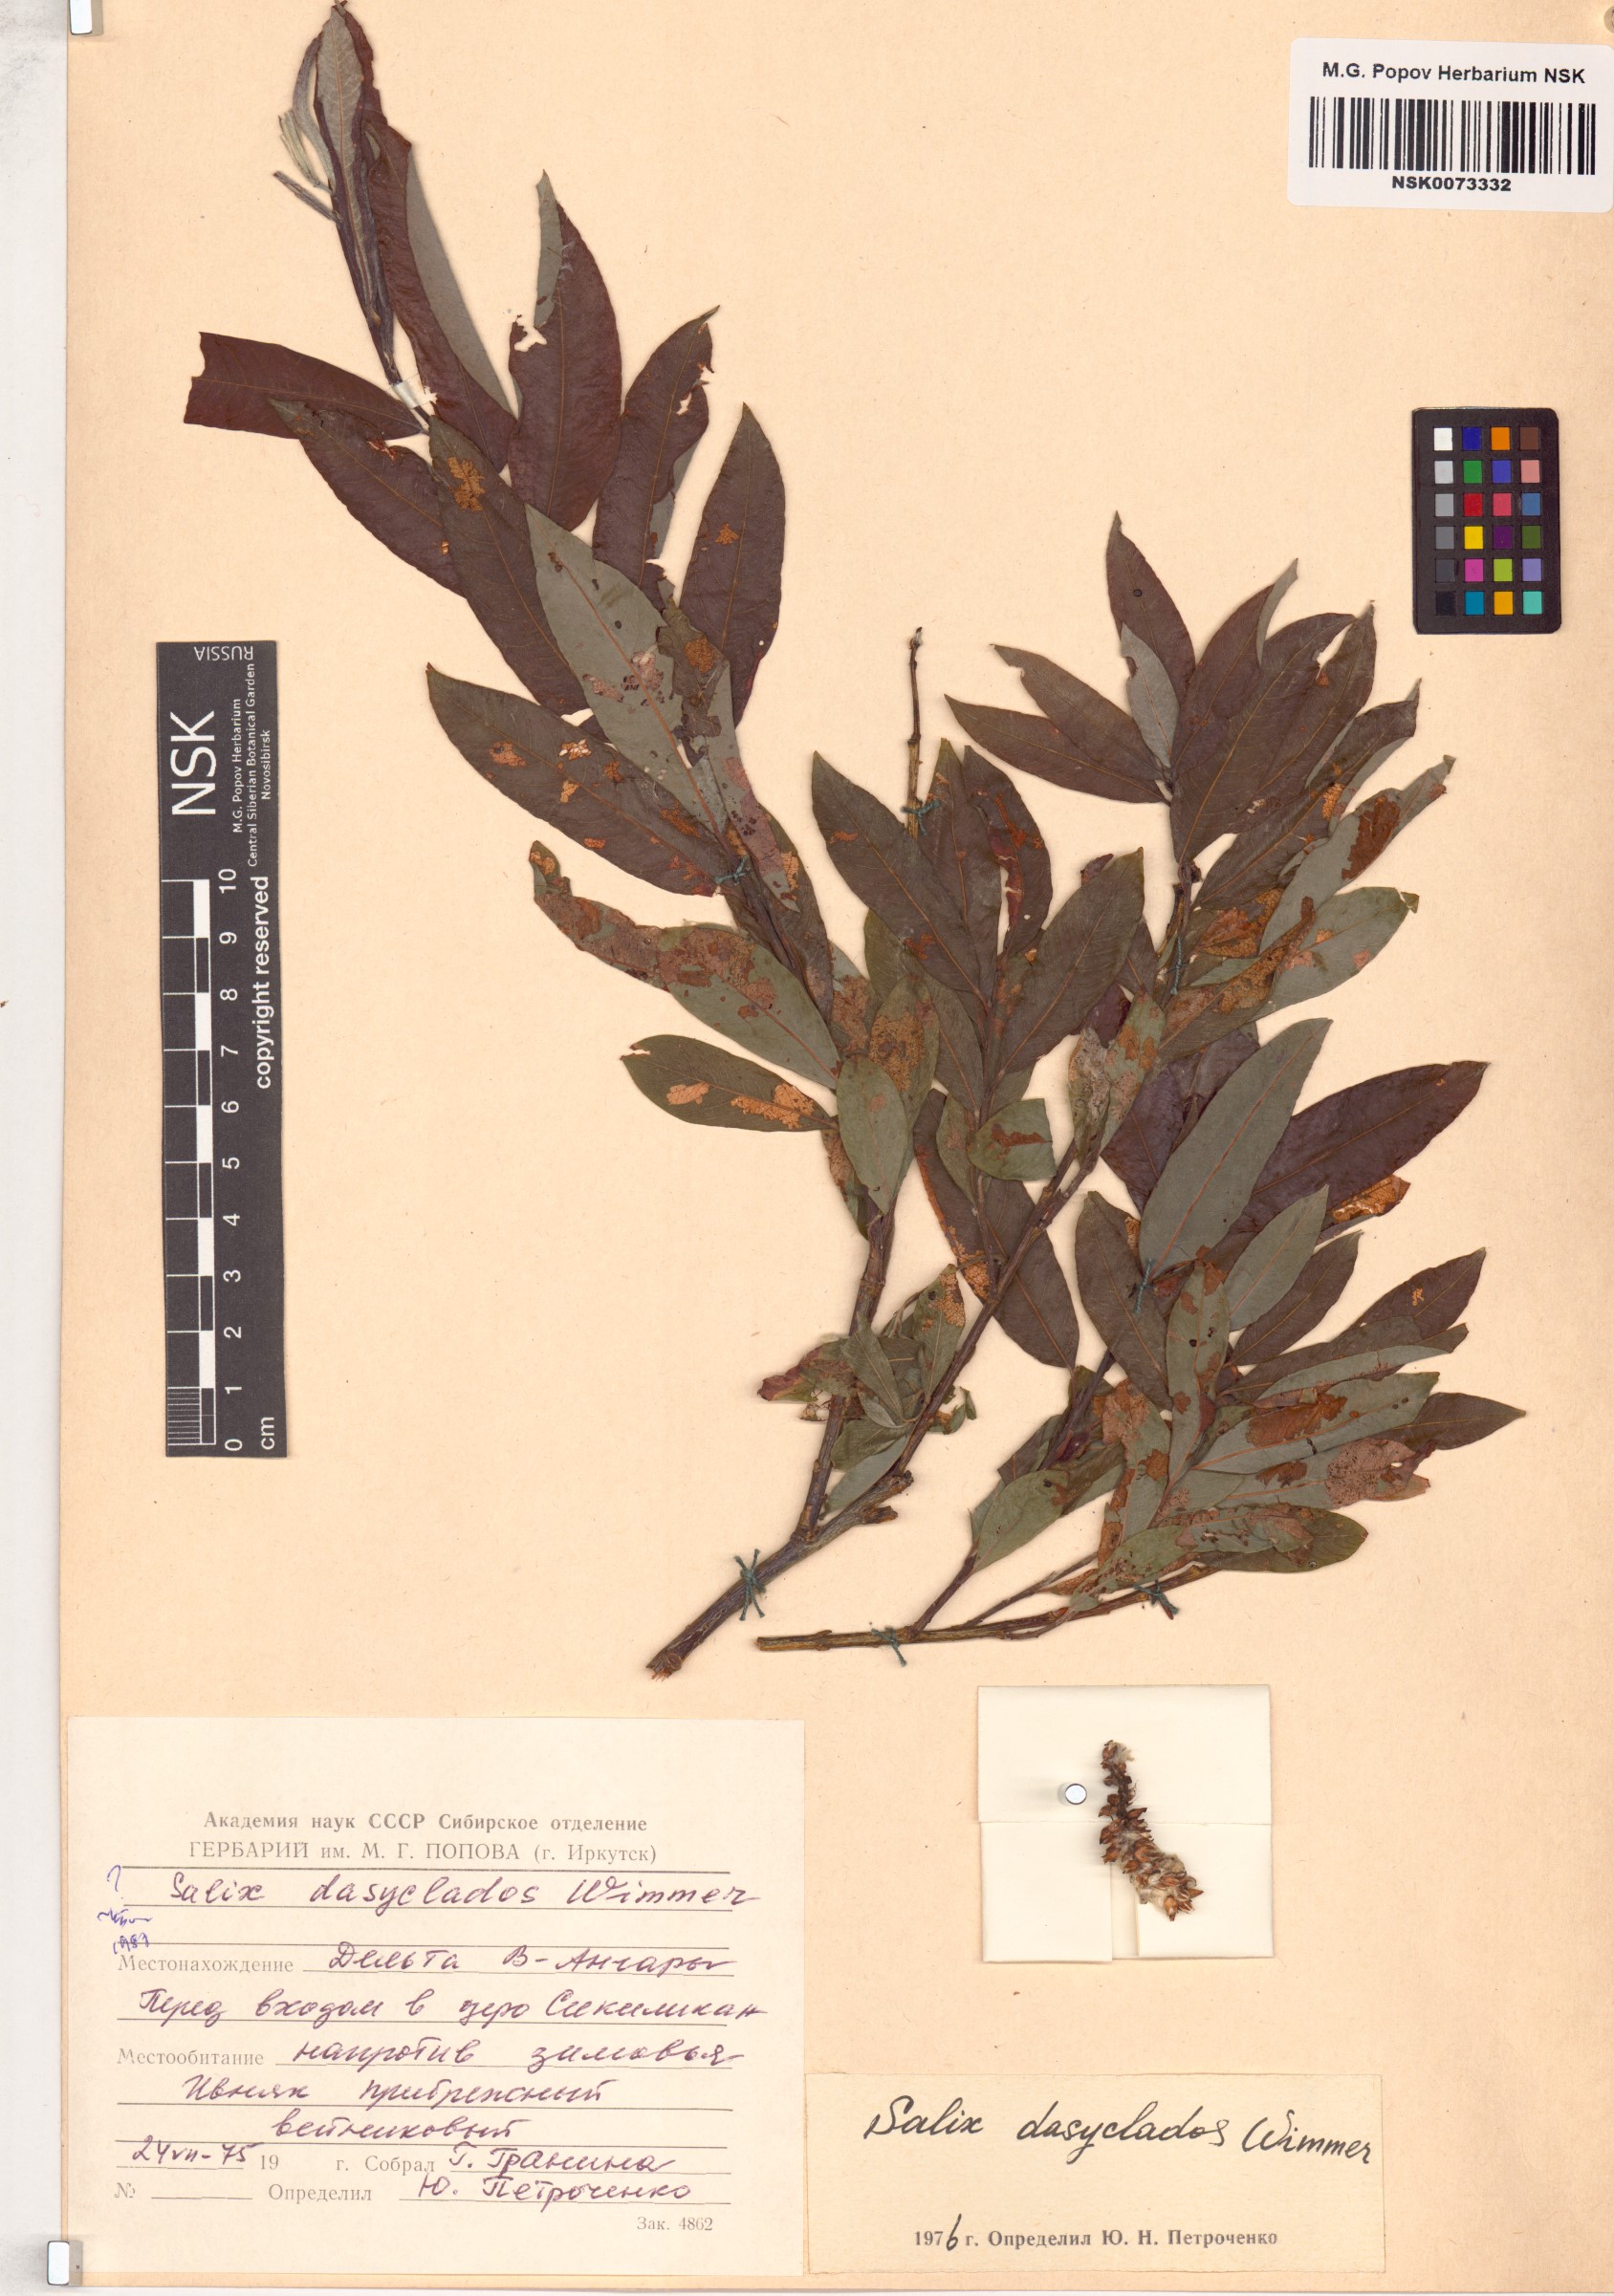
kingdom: Plantae
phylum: Tracheophyta
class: Magnoliopsida
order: Malpighiales
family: Salicaceae
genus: Salix
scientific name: Salix gmelinii
